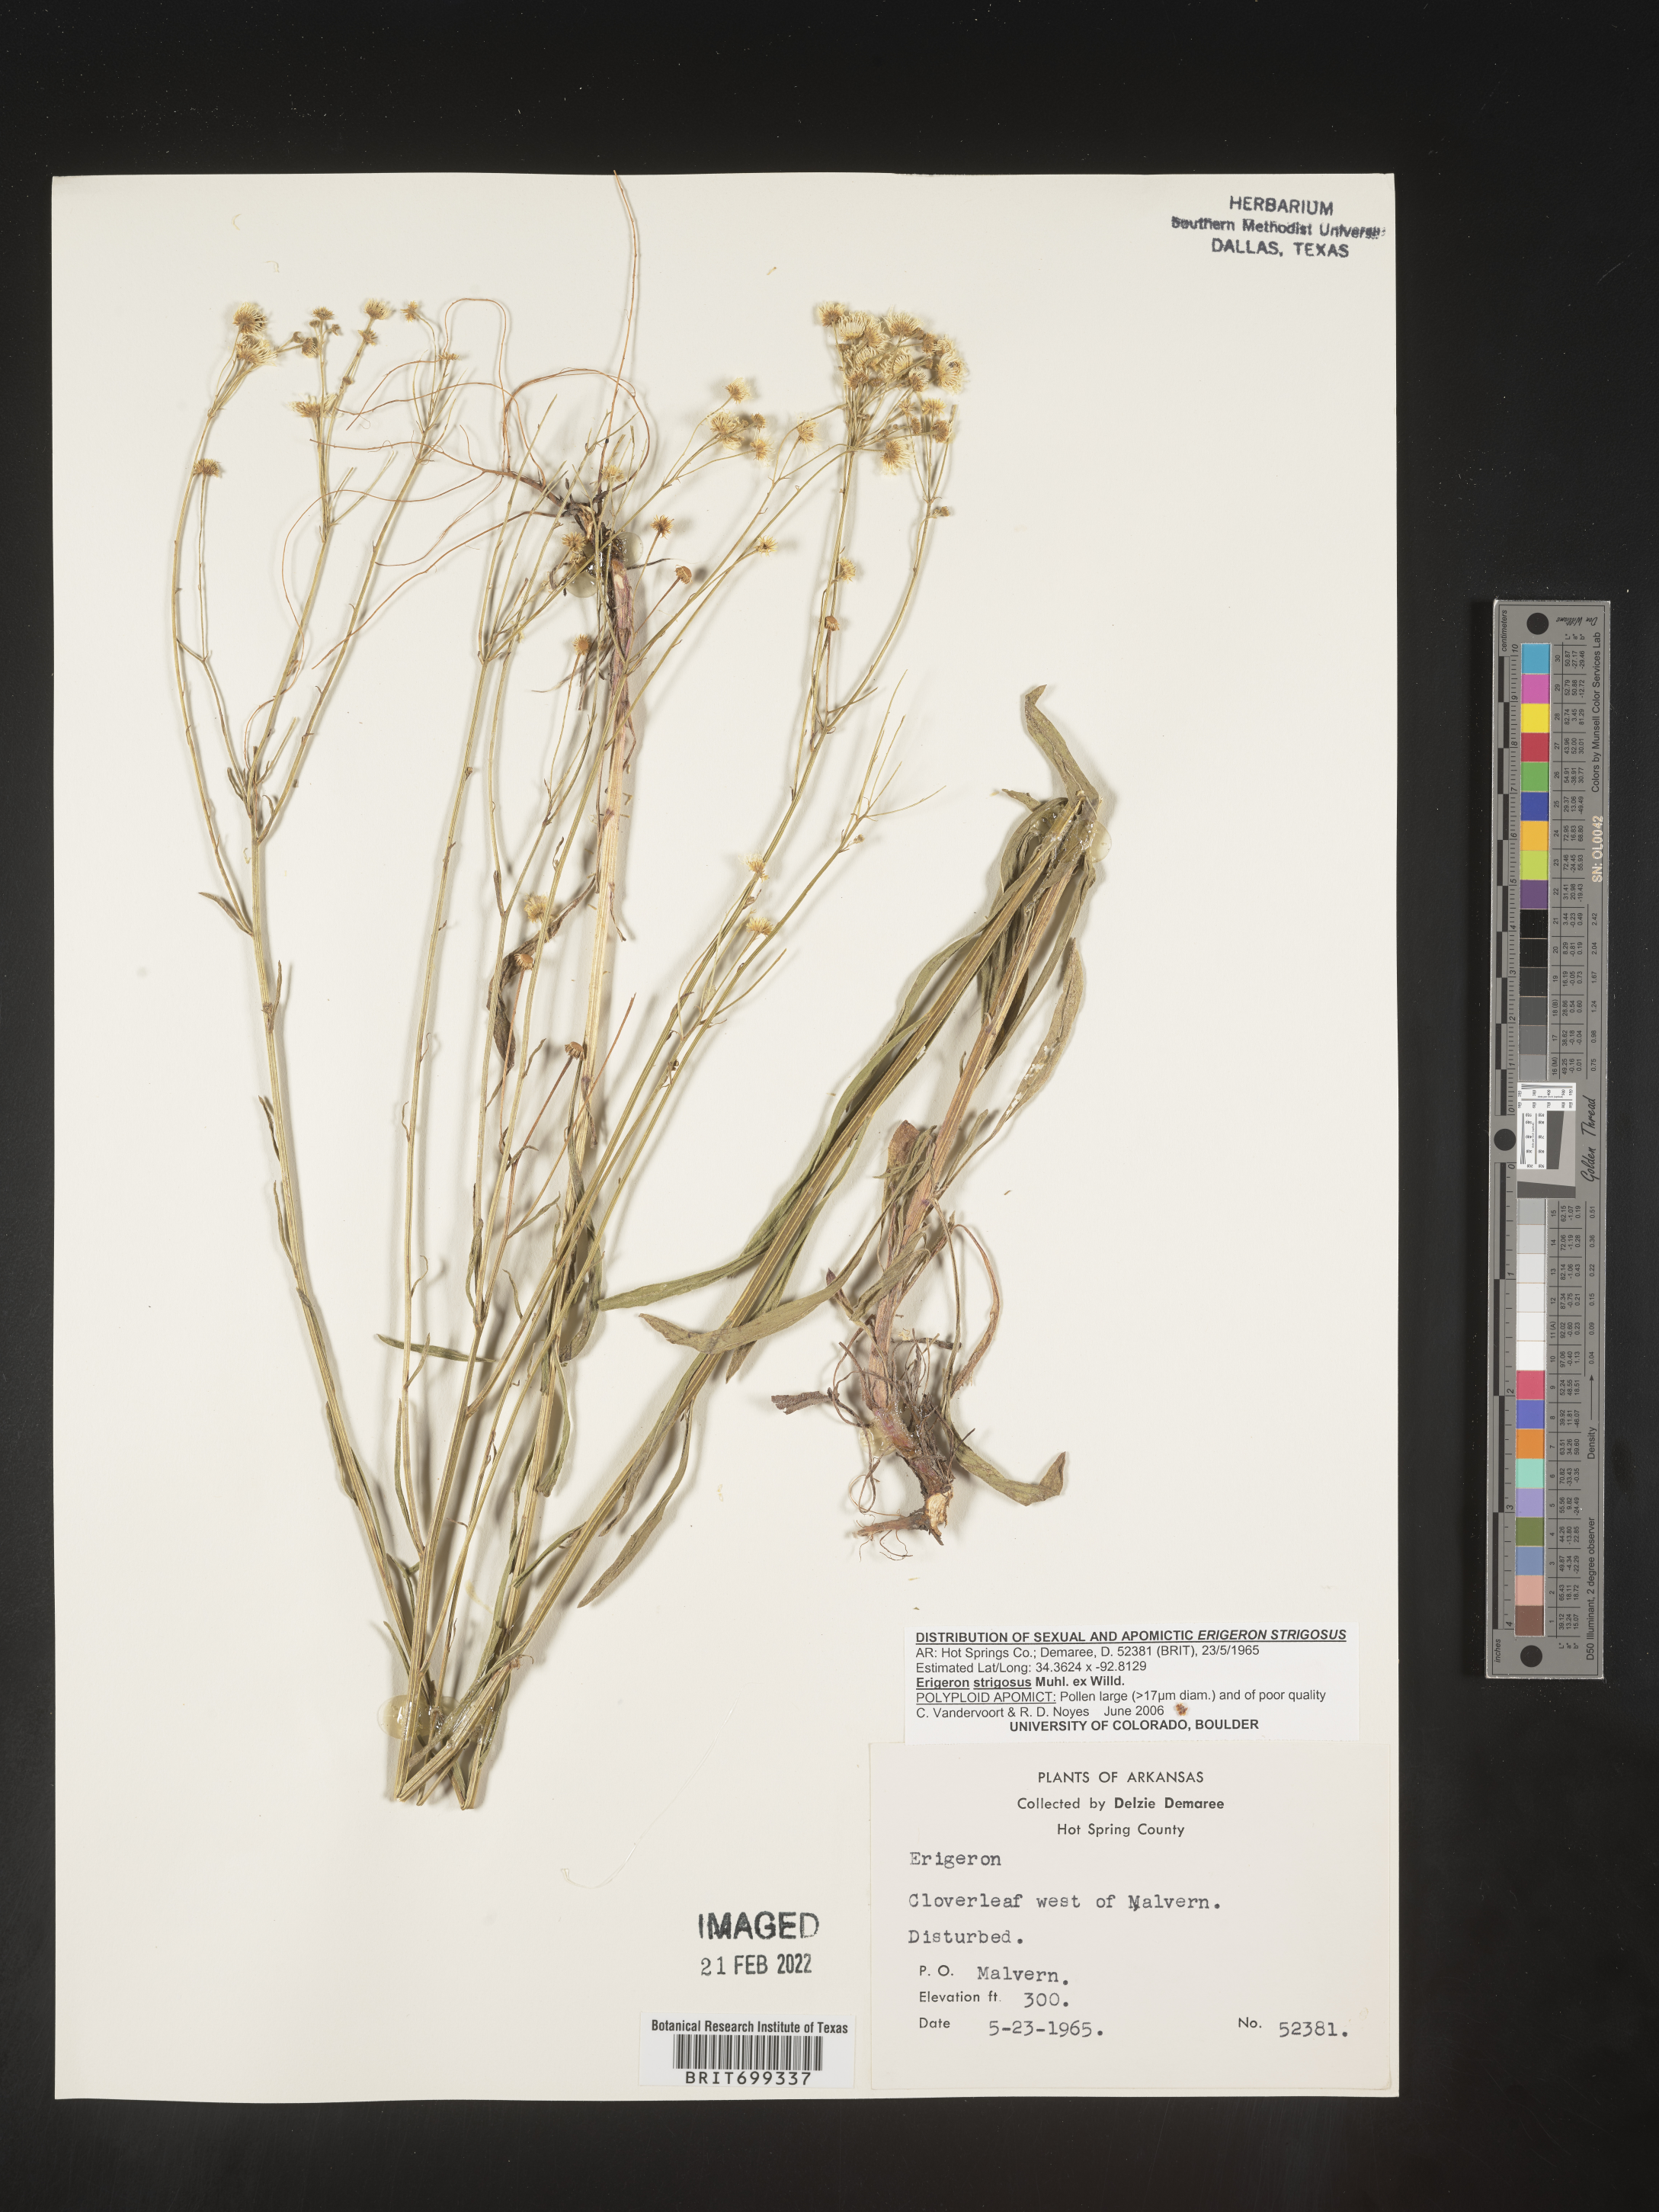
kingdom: Plantae
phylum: Tracheophyta
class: Magnoliopsida
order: Asterales
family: Asteraceae
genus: Erigeron
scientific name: Erigeron strigosus
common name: Common eastern fleabane
